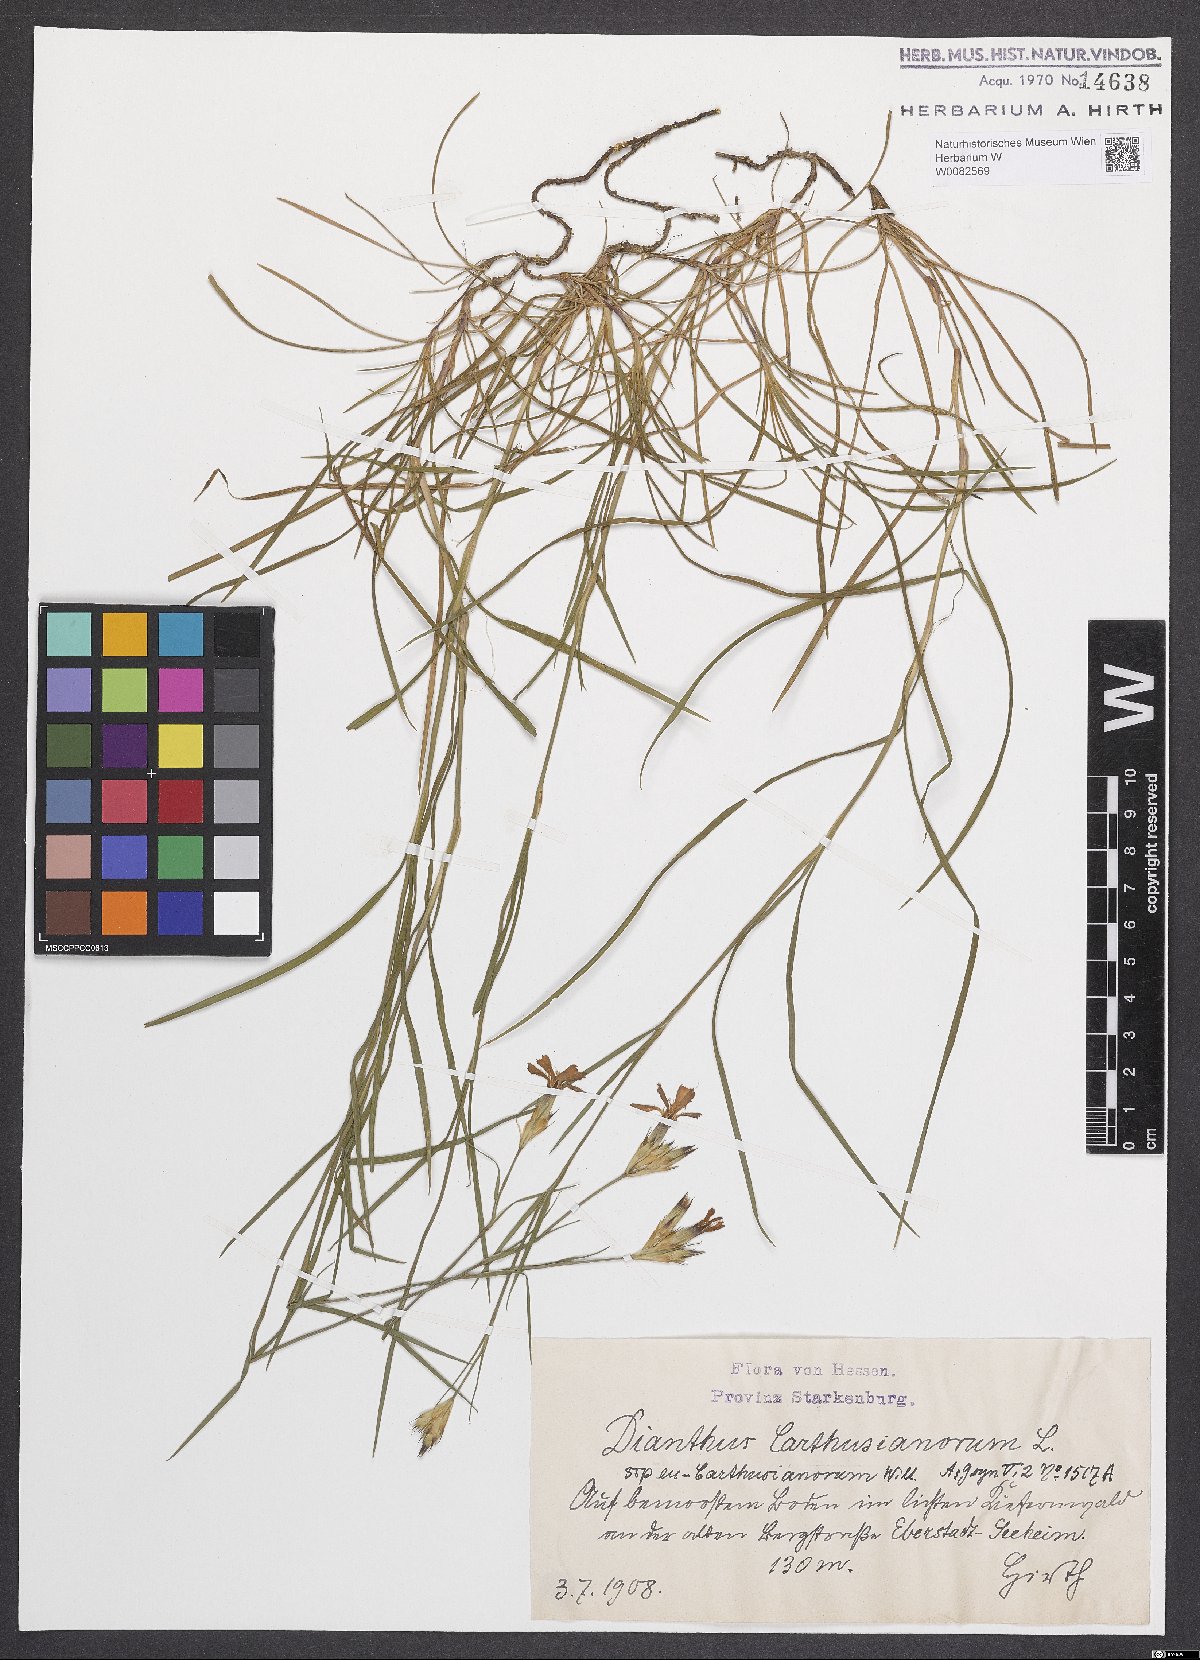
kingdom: Plantae
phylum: Tracheophyta
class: Magnoliopsida
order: Caryophyllales
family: Caryophyllaceae
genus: Dianthus
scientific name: Dianthus carthusianorum
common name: Carthusian pink
